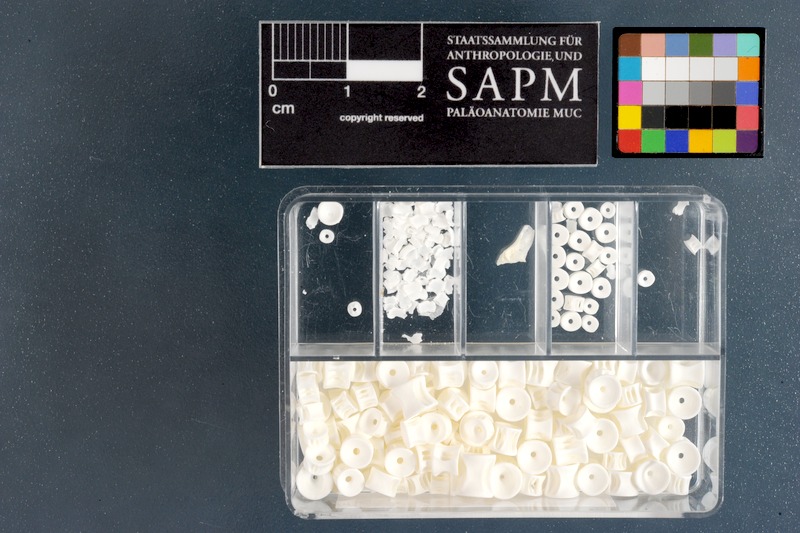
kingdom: Animalia
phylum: Chordata
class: Elasmobranchii
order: Carcharhiniformes
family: Triakidae
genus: Mustelus
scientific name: Mustelus mustelus
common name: Smooth-hound
